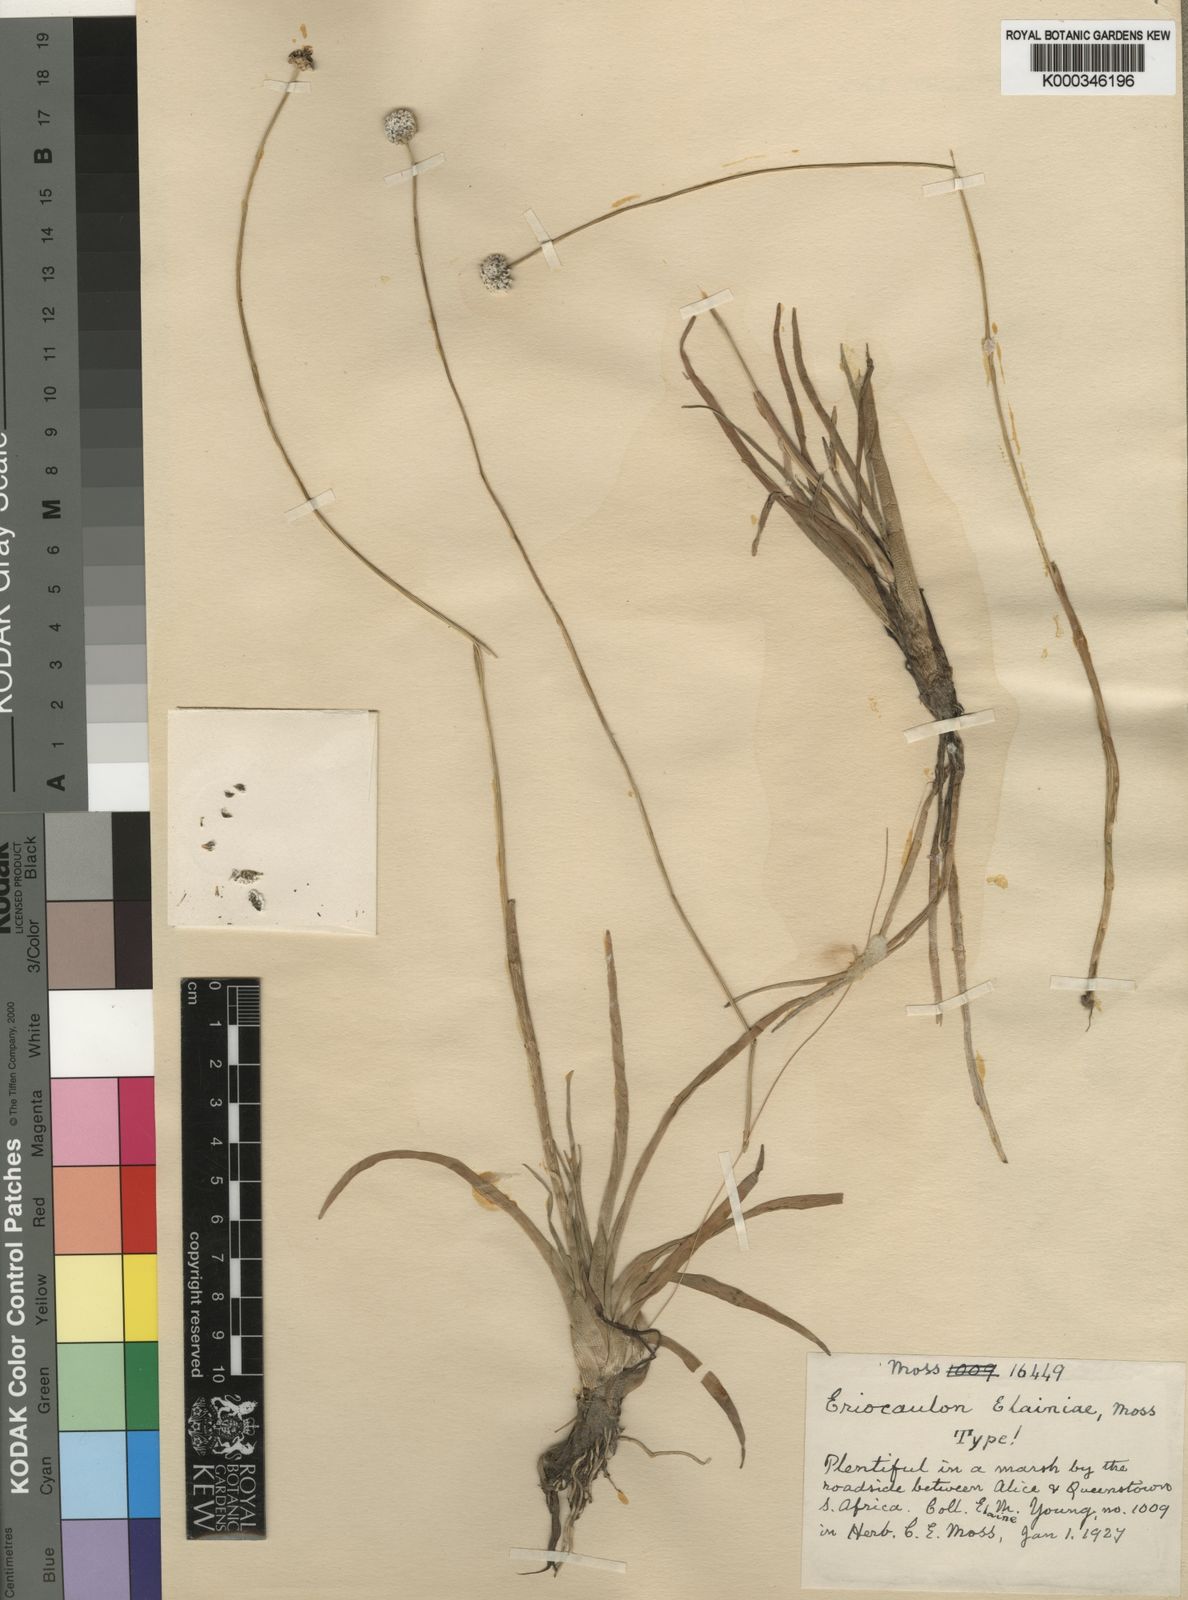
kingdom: Plantae
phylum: Tracheophyta
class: Liliopsida
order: Poales
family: Eriocaulaceae
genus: Eriocaulon
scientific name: Eriocaulon
